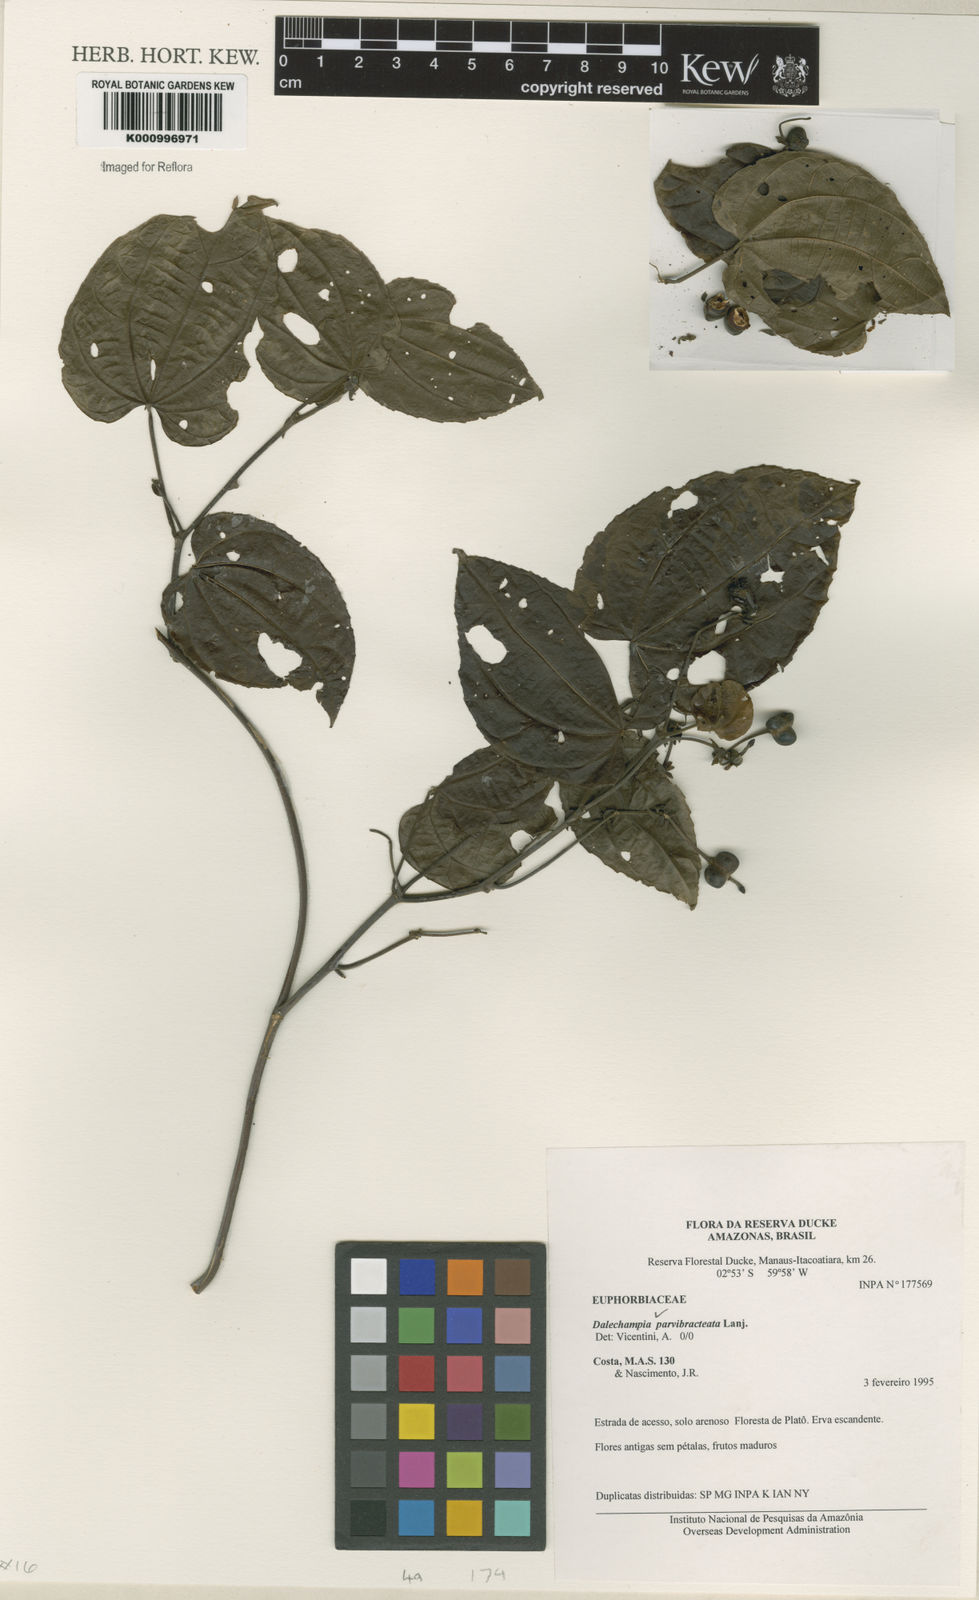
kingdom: Plantae
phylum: Tracheophyta
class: Magnoliopsida
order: Malpighiales
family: Euphorbiaceae
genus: Dalechampia
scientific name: Dalechampia parvibracteata
